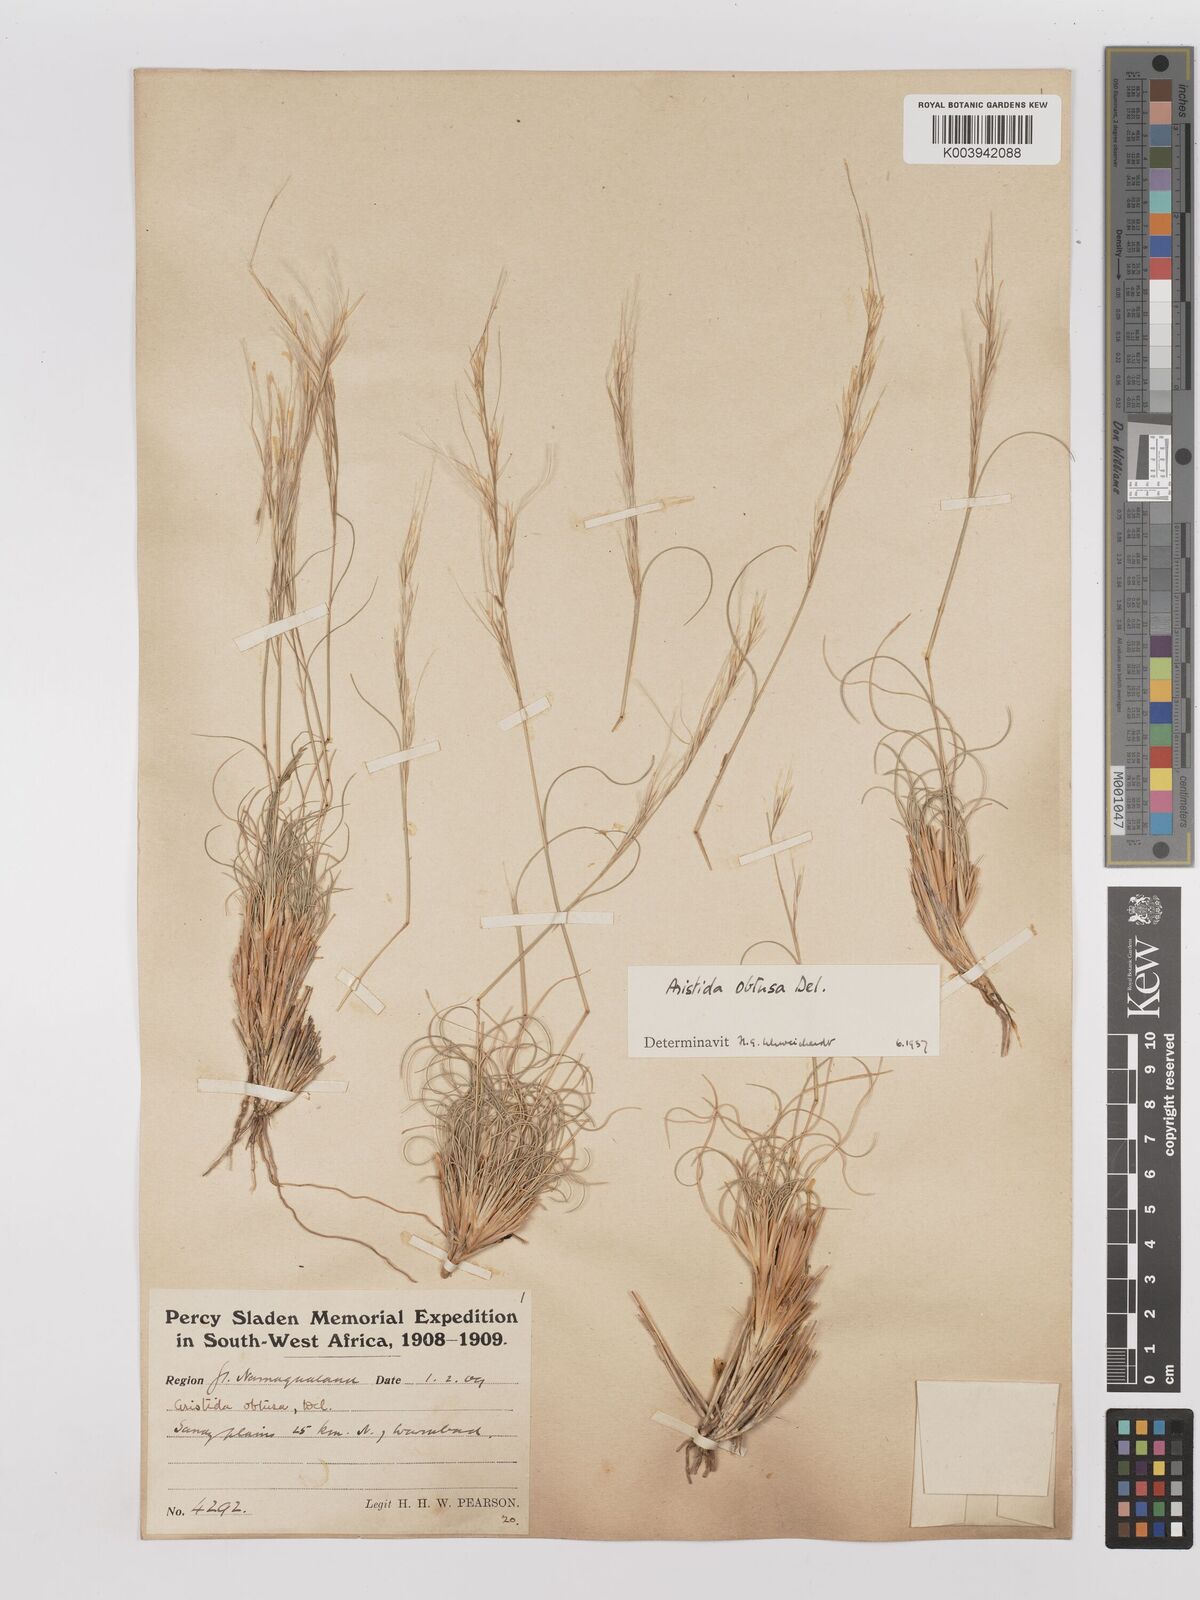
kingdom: Plantae
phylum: Tracheophyta
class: Liliopsida
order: Poales
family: Poaceae
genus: Stipagrostis
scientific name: Stipagrostis obtusa
